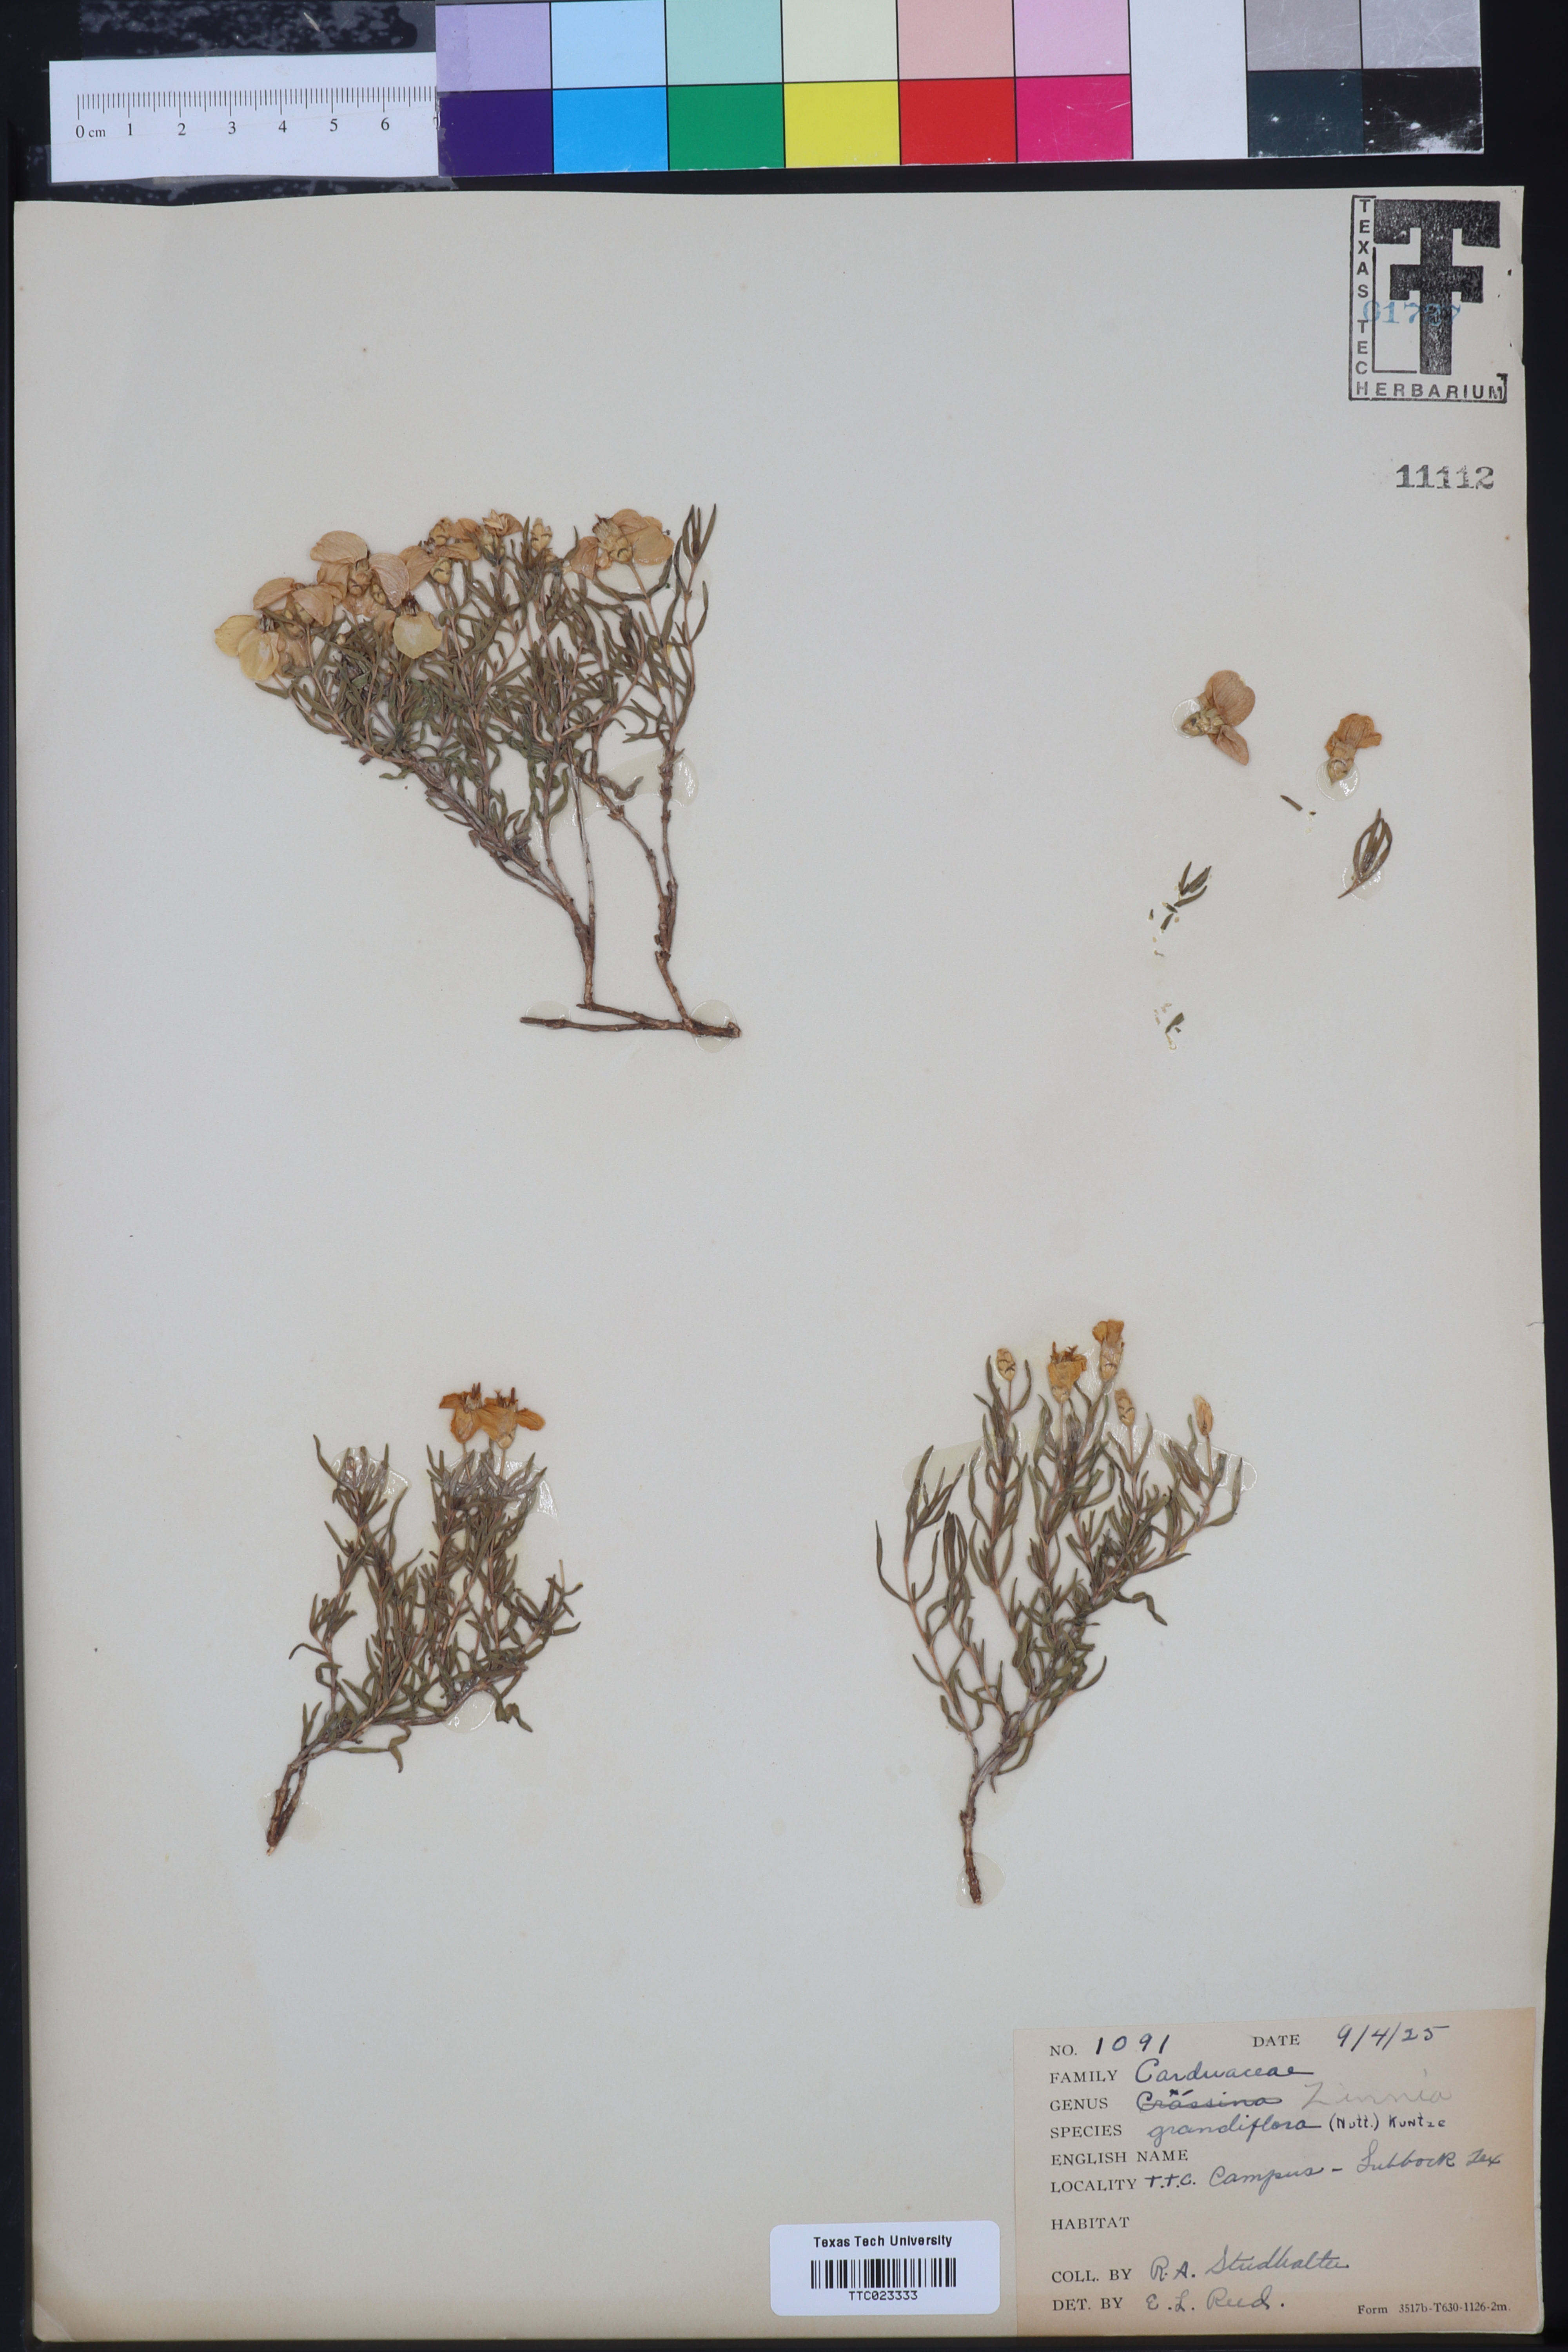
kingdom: Plantae
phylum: Tracheophyta
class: Magnoliopsida
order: Asterales
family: Asteraceae
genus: Zinnia
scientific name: Zinnia grandiflora
